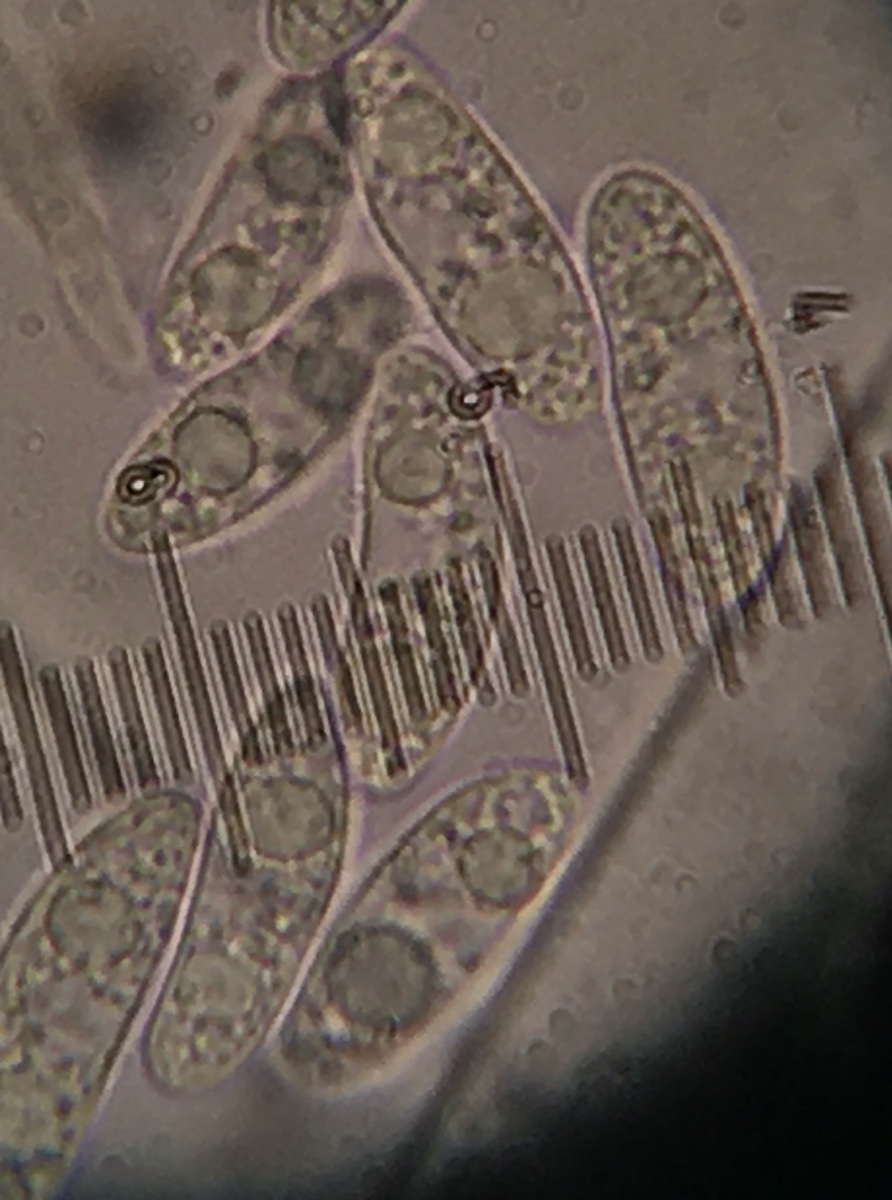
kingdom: Fungi
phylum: Ascomycota
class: Leotiomycetes
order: Helotiales
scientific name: Helotiales
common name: stilkskiveordenen
